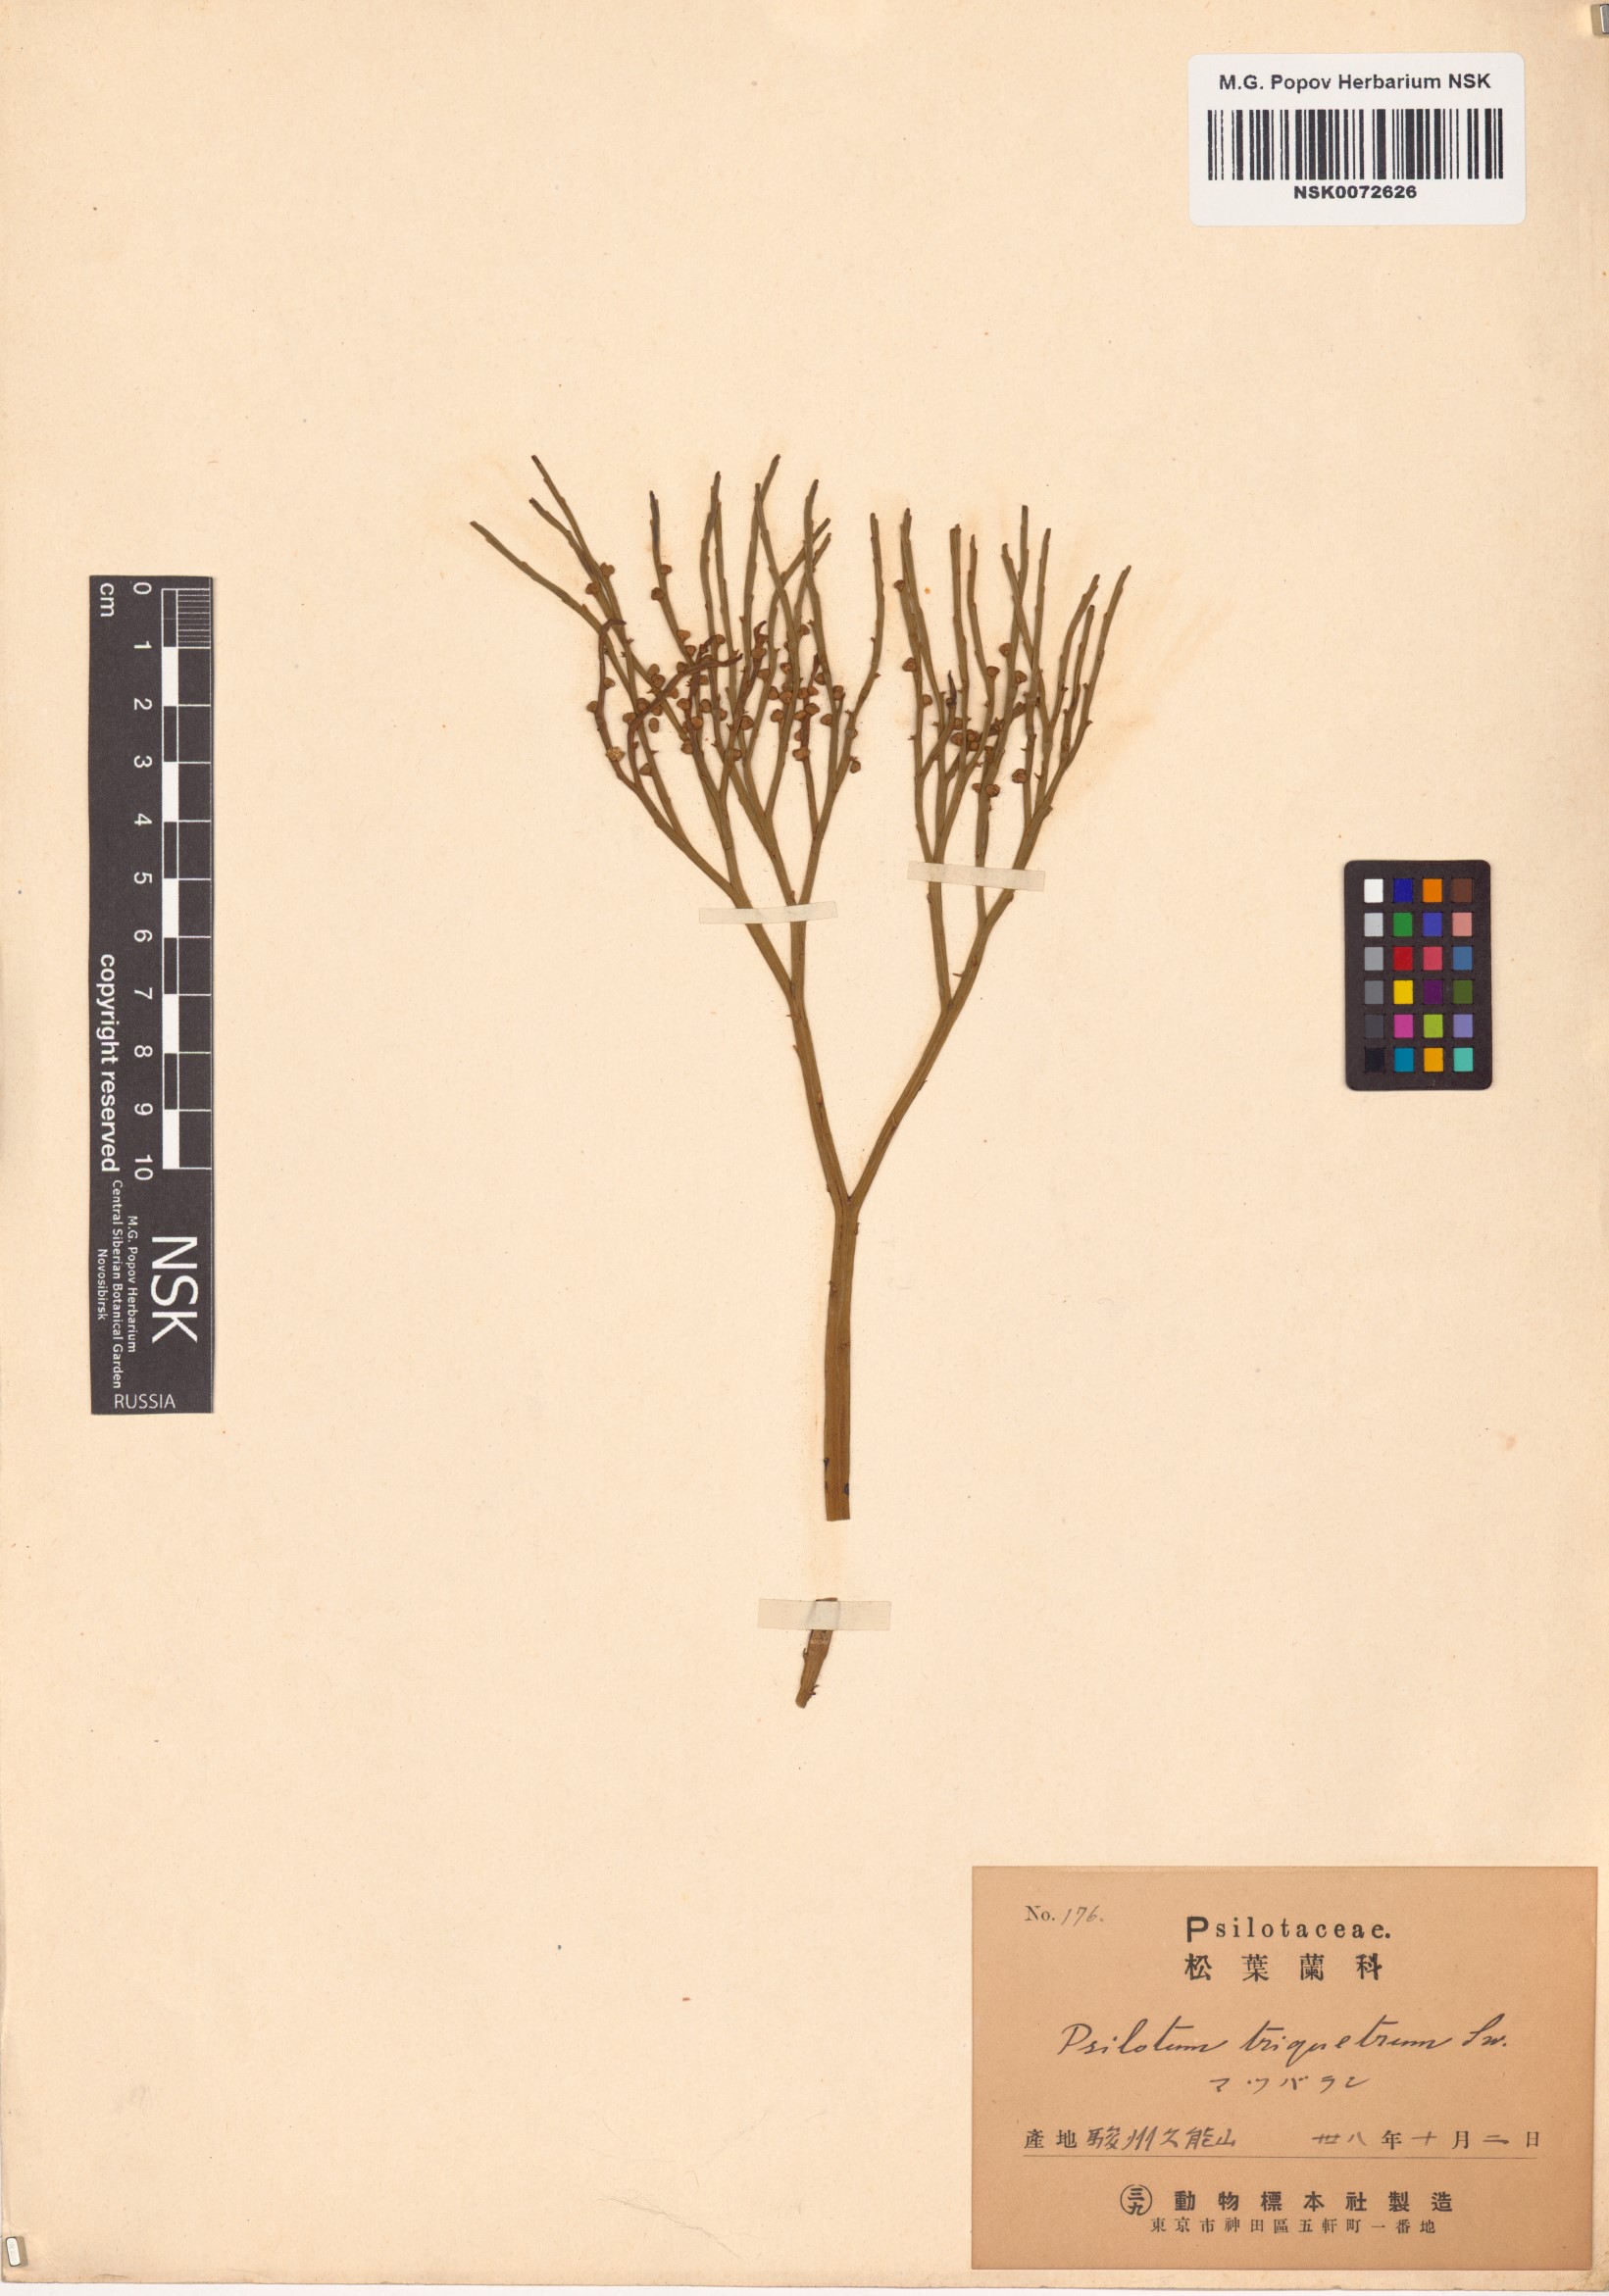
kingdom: Plantae
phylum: Tracheophyta
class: Polypodiopsida
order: Psilotales
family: Psilotaceae
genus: Psilotum
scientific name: Psilotum nudum
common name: Skeleton fork fern
